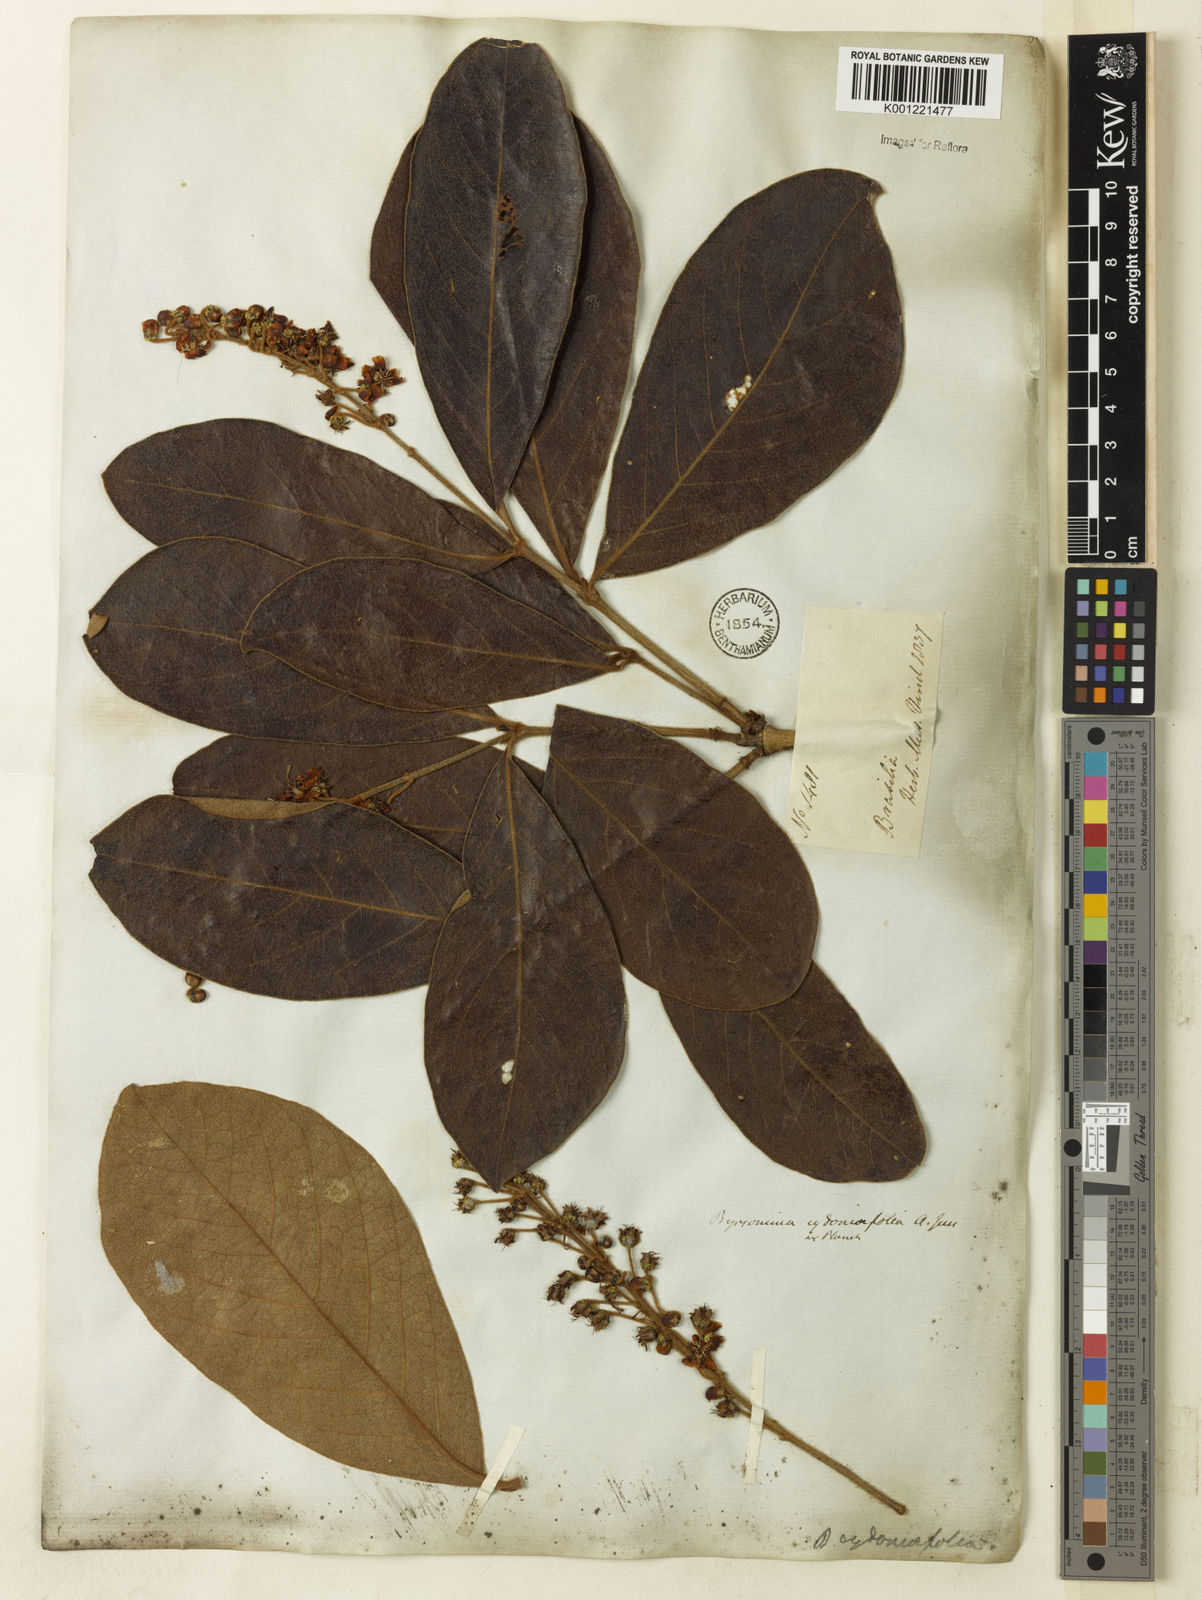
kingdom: Plantae
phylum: Tracheophyta
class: Magnoliopsida
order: Malpighiales
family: Malpighiaceae
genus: Byrsonima
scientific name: Byrsonima cydoniifolia
